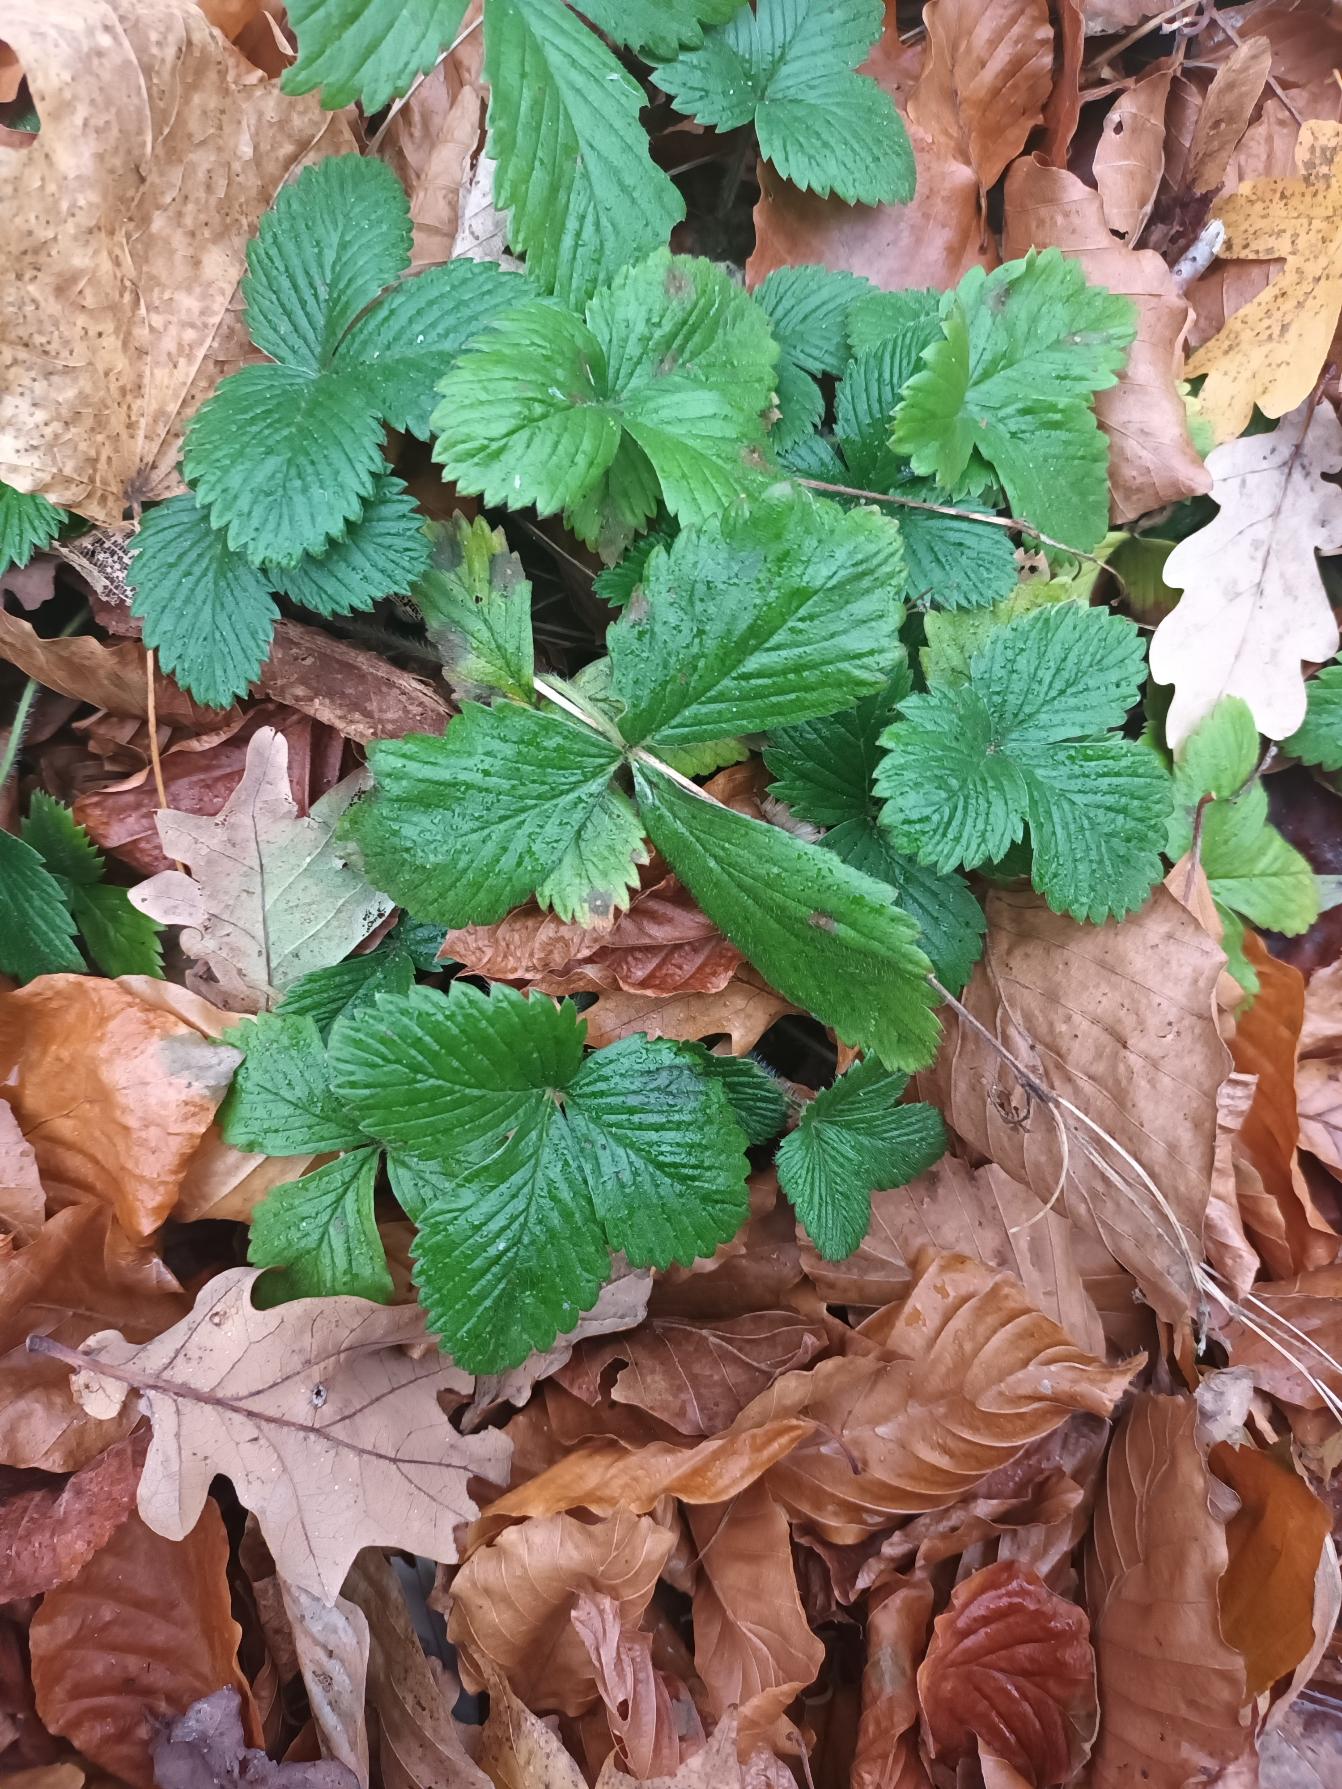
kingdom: Plantae
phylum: Tracheophyta
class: Magnoliopsida
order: Rosales
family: Rosaceae
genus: Fragaria
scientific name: Fragaria vesca
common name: Skov-jordbær
